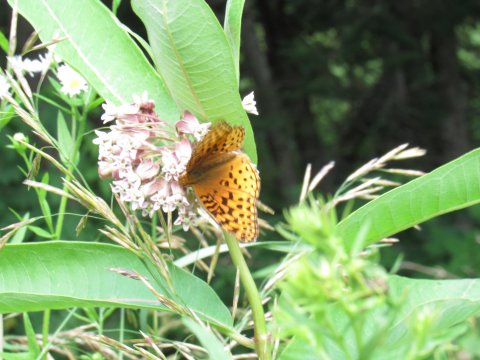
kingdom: Animalia
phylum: Arthropoda
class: Insecta
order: Lepidoptera
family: Nymphalidae
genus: Speyeria
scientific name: Speyeria aphrodite
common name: Aphrodite Fritillary
